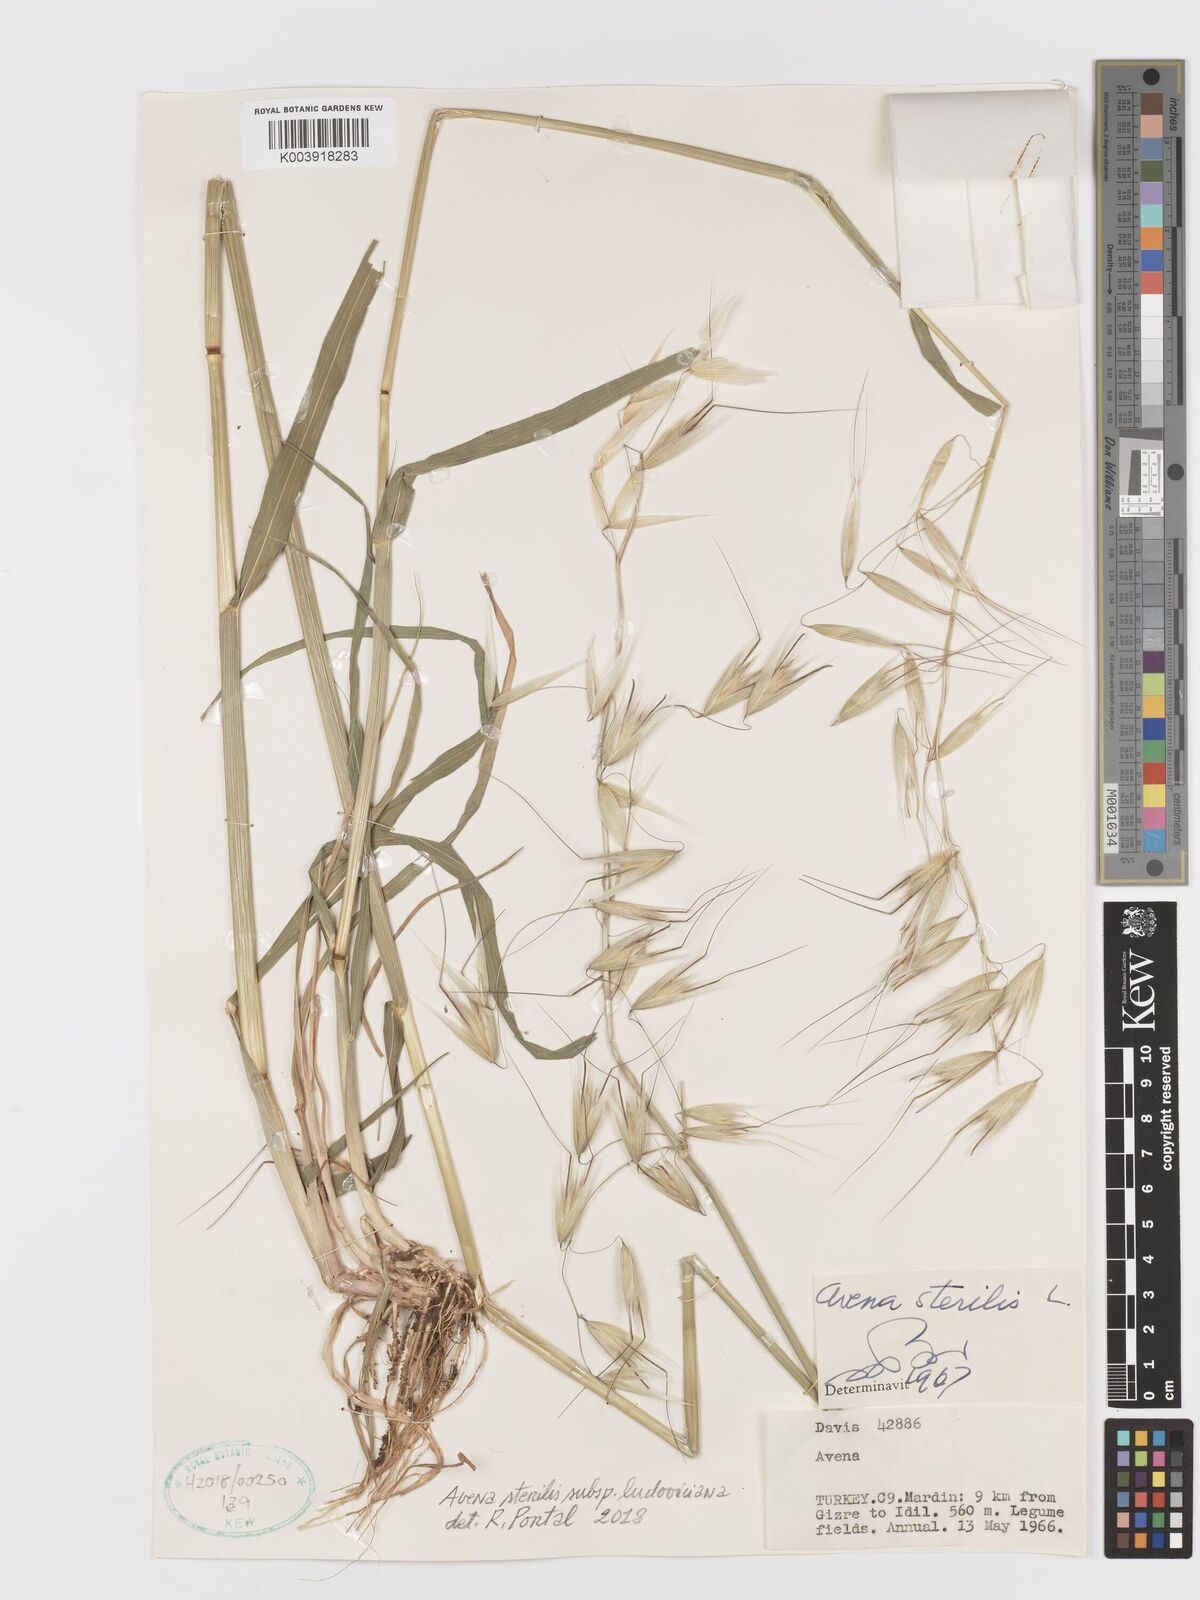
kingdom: Plantae
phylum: Tracheophyta
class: Liliopsida
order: Poales
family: Poaceae
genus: Avena
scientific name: Avena sterilis
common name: Animated oat
